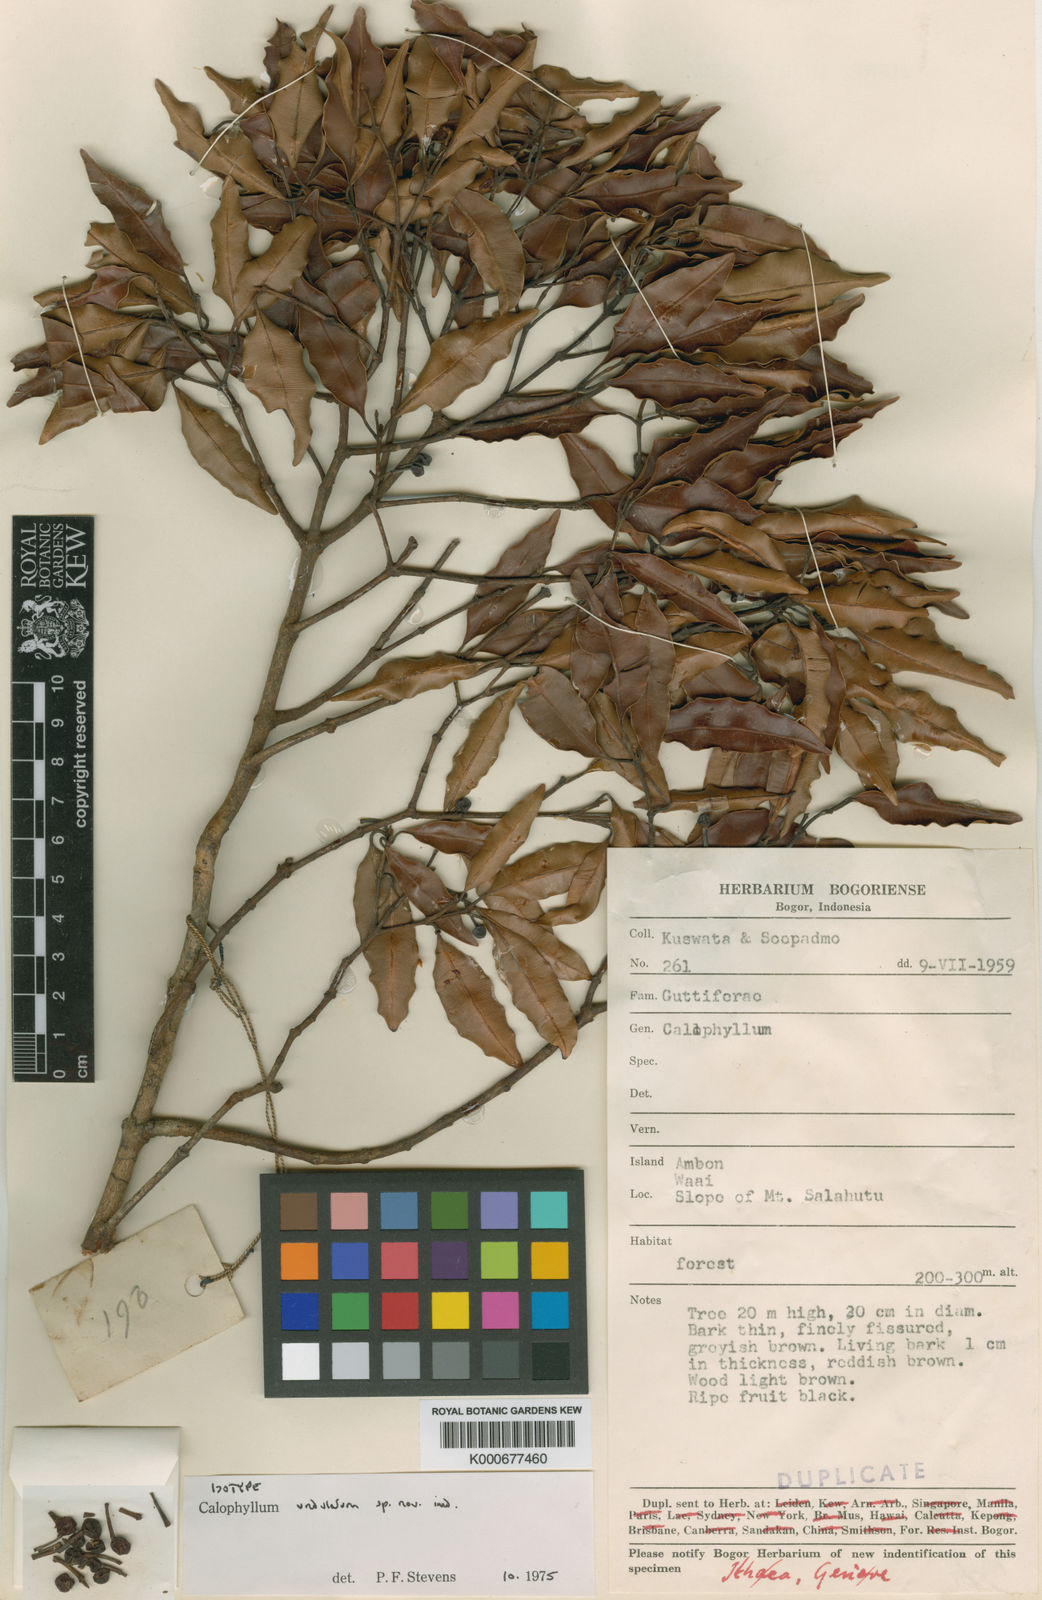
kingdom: Plantae
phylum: Tracheophyta
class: Magnoliopsida
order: Malpighiales
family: Calophyllaceae
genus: Calophyllum
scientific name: Calophyllum undulatum
